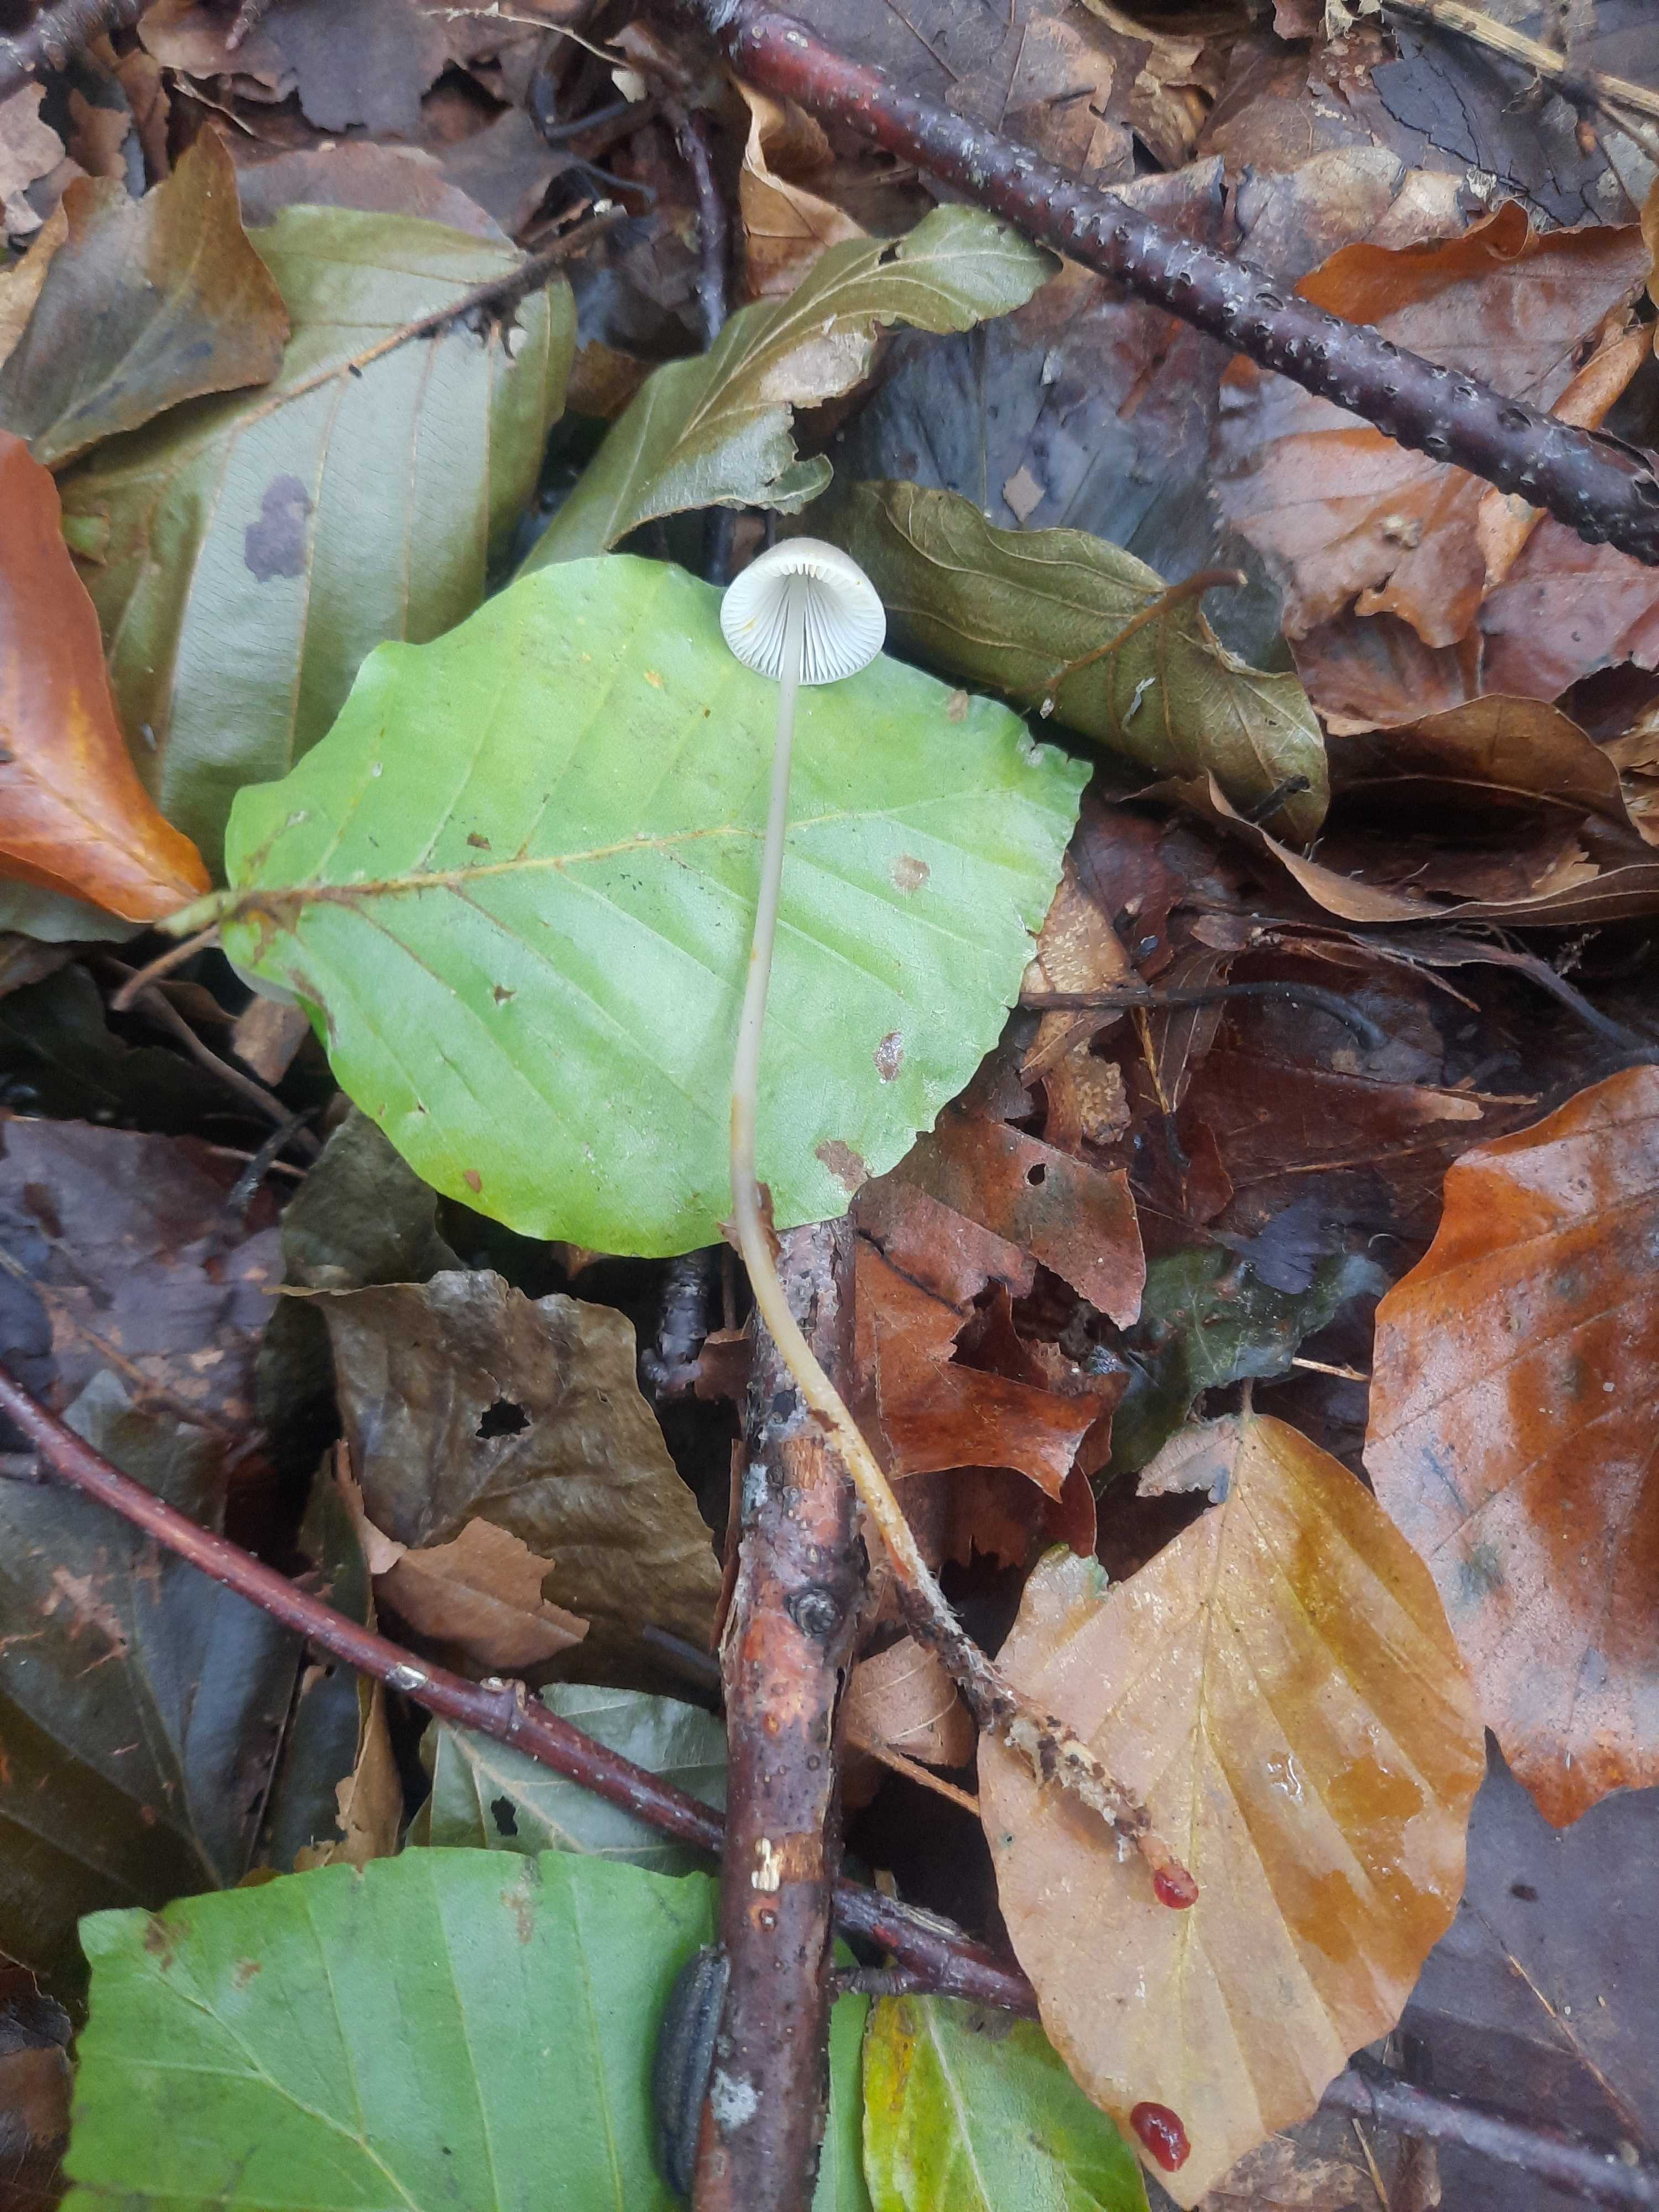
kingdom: Fungi
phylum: Basidiomycota
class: Agaricomycetes
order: Agaricales
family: Mycenaceae
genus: Mycena
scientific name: Mycena crocata
